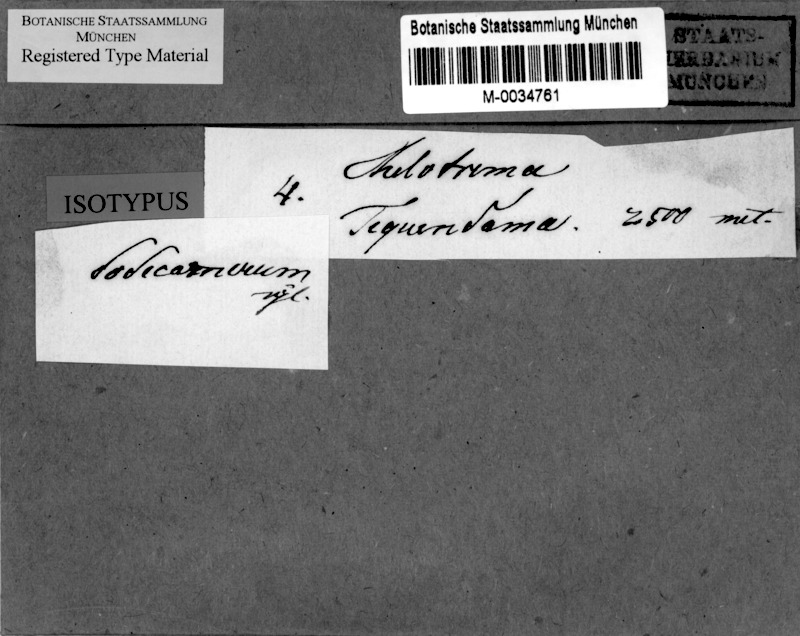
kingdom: Fungi
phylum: Ascomycota
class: Lecanoromycetes
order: Ostropales
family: Graphidaceae
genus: Ocellularia
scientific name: Ocellularia dodecamera
